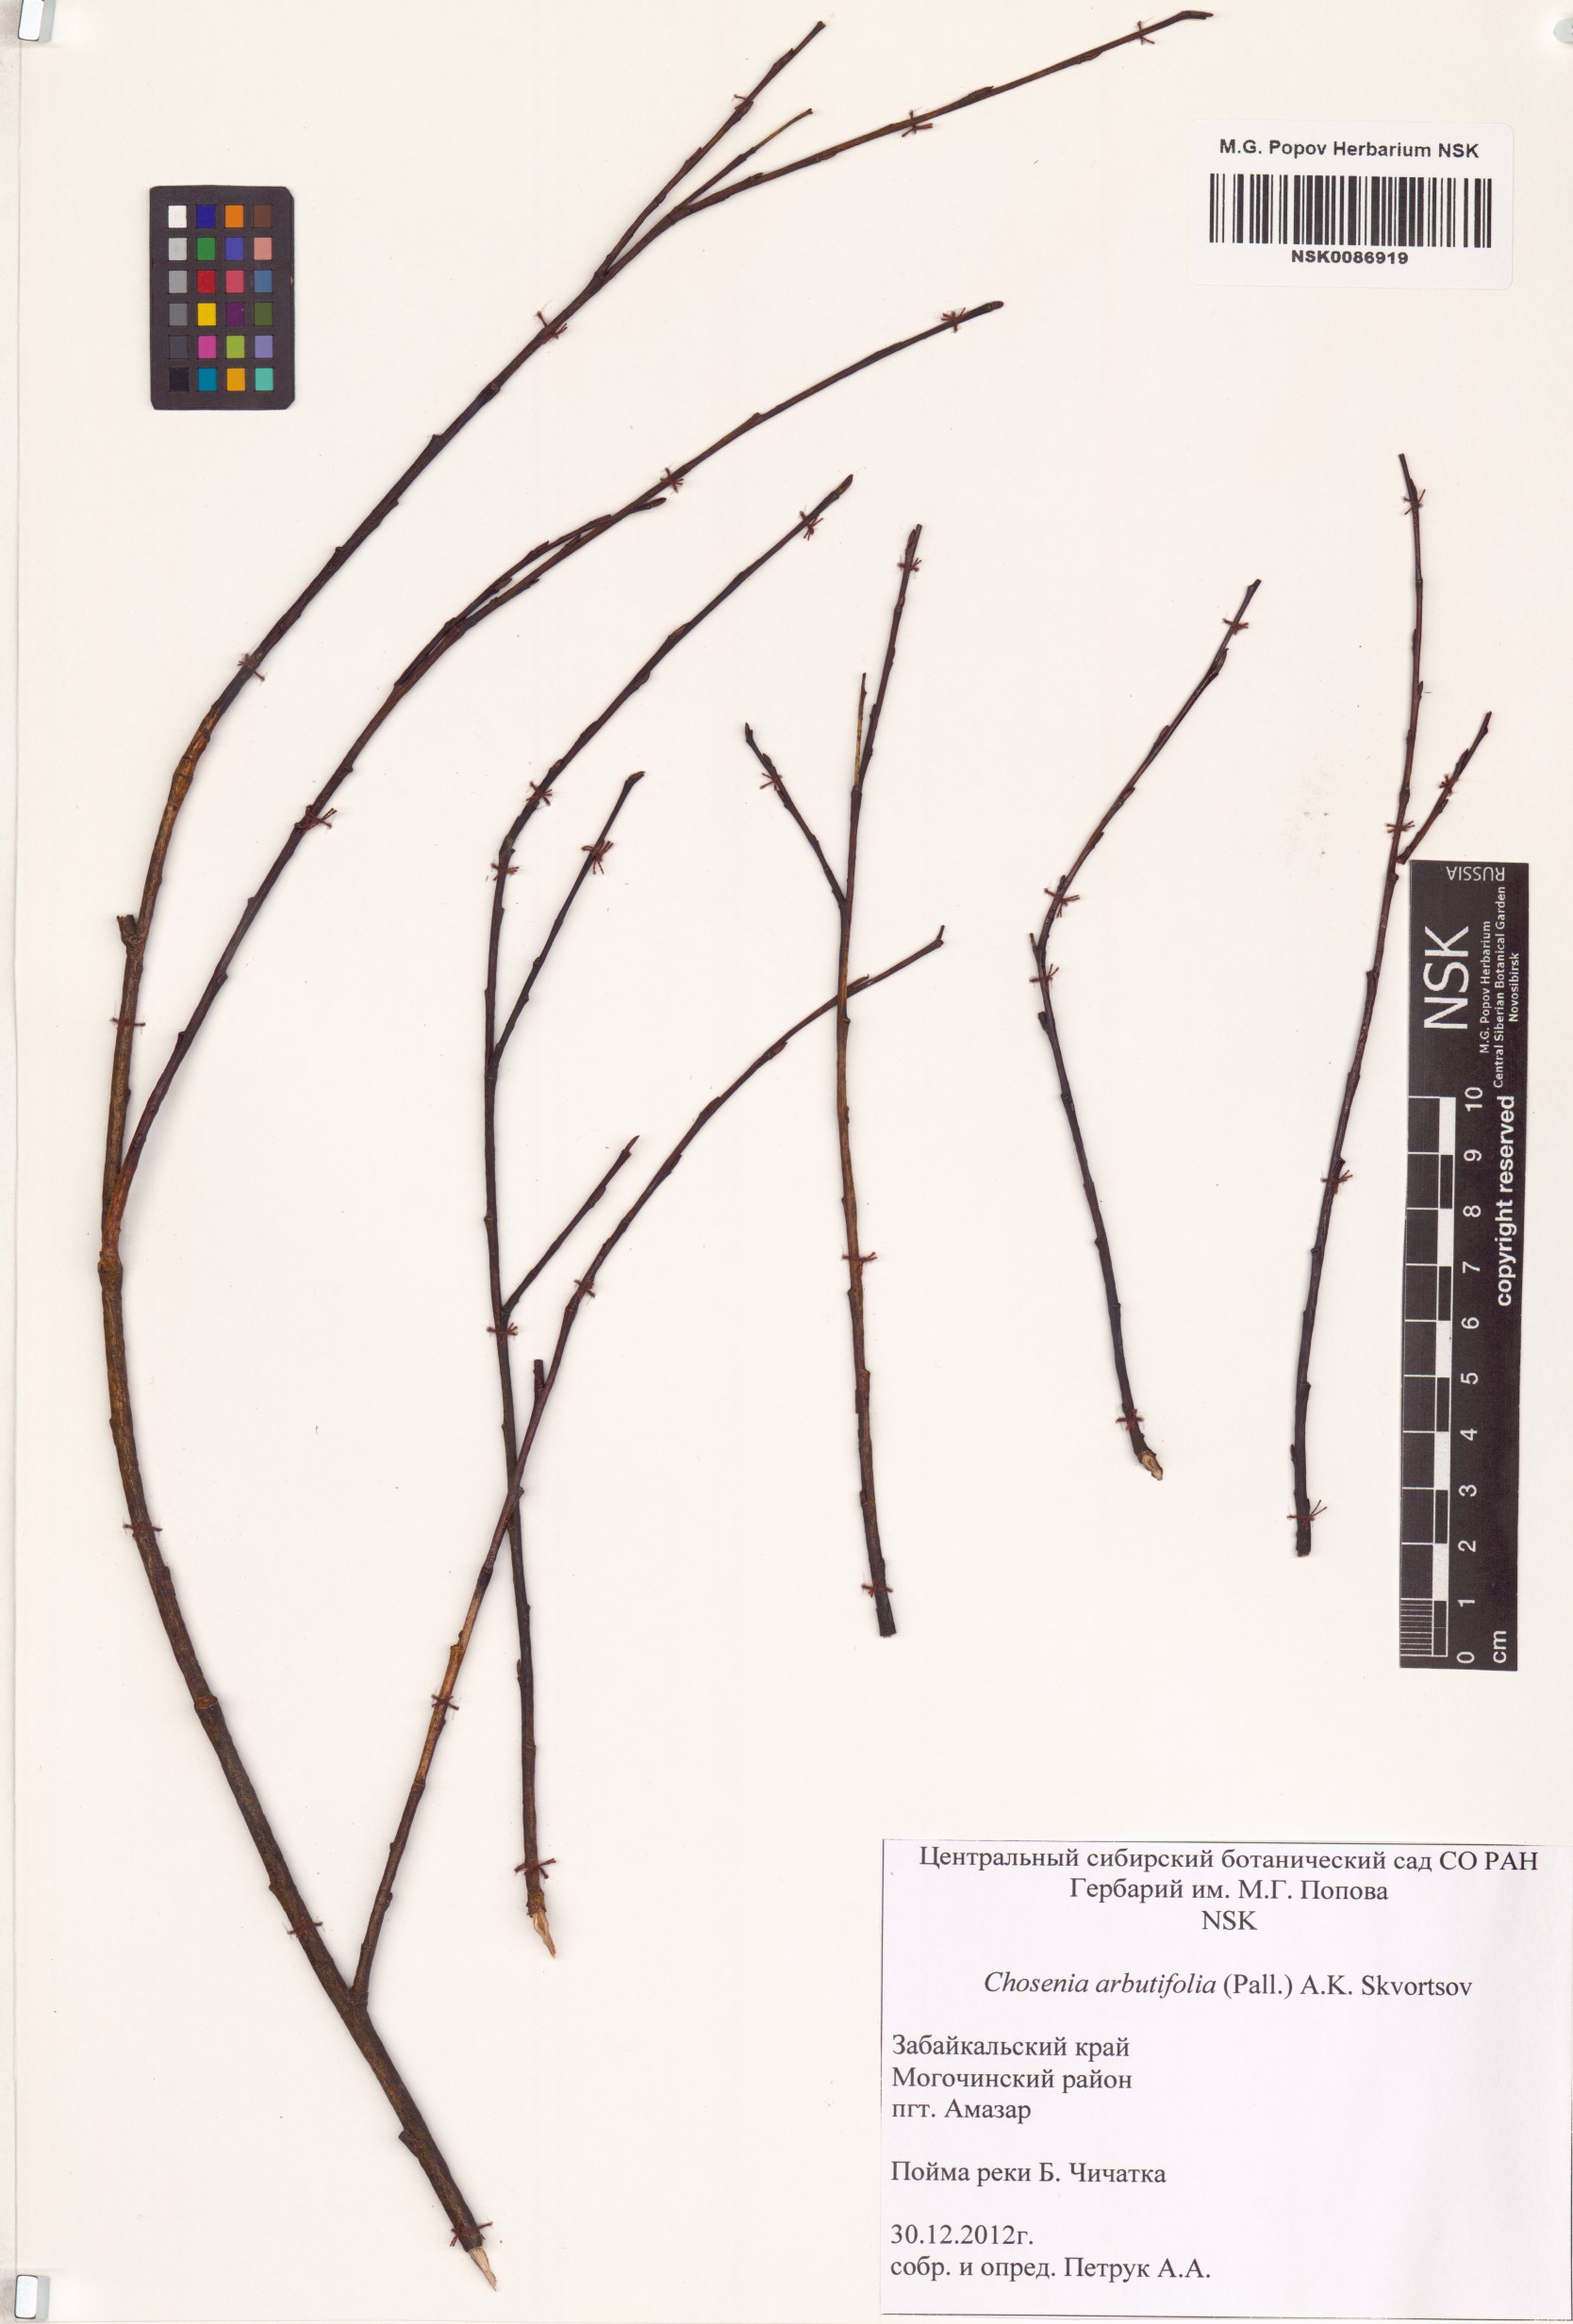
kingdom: Plantae
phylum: Tracheophyta
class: Magnoliopsida
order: Malpighiales
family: Salicaceae
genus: Chosenia
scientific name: Chosenia arbutifolia
